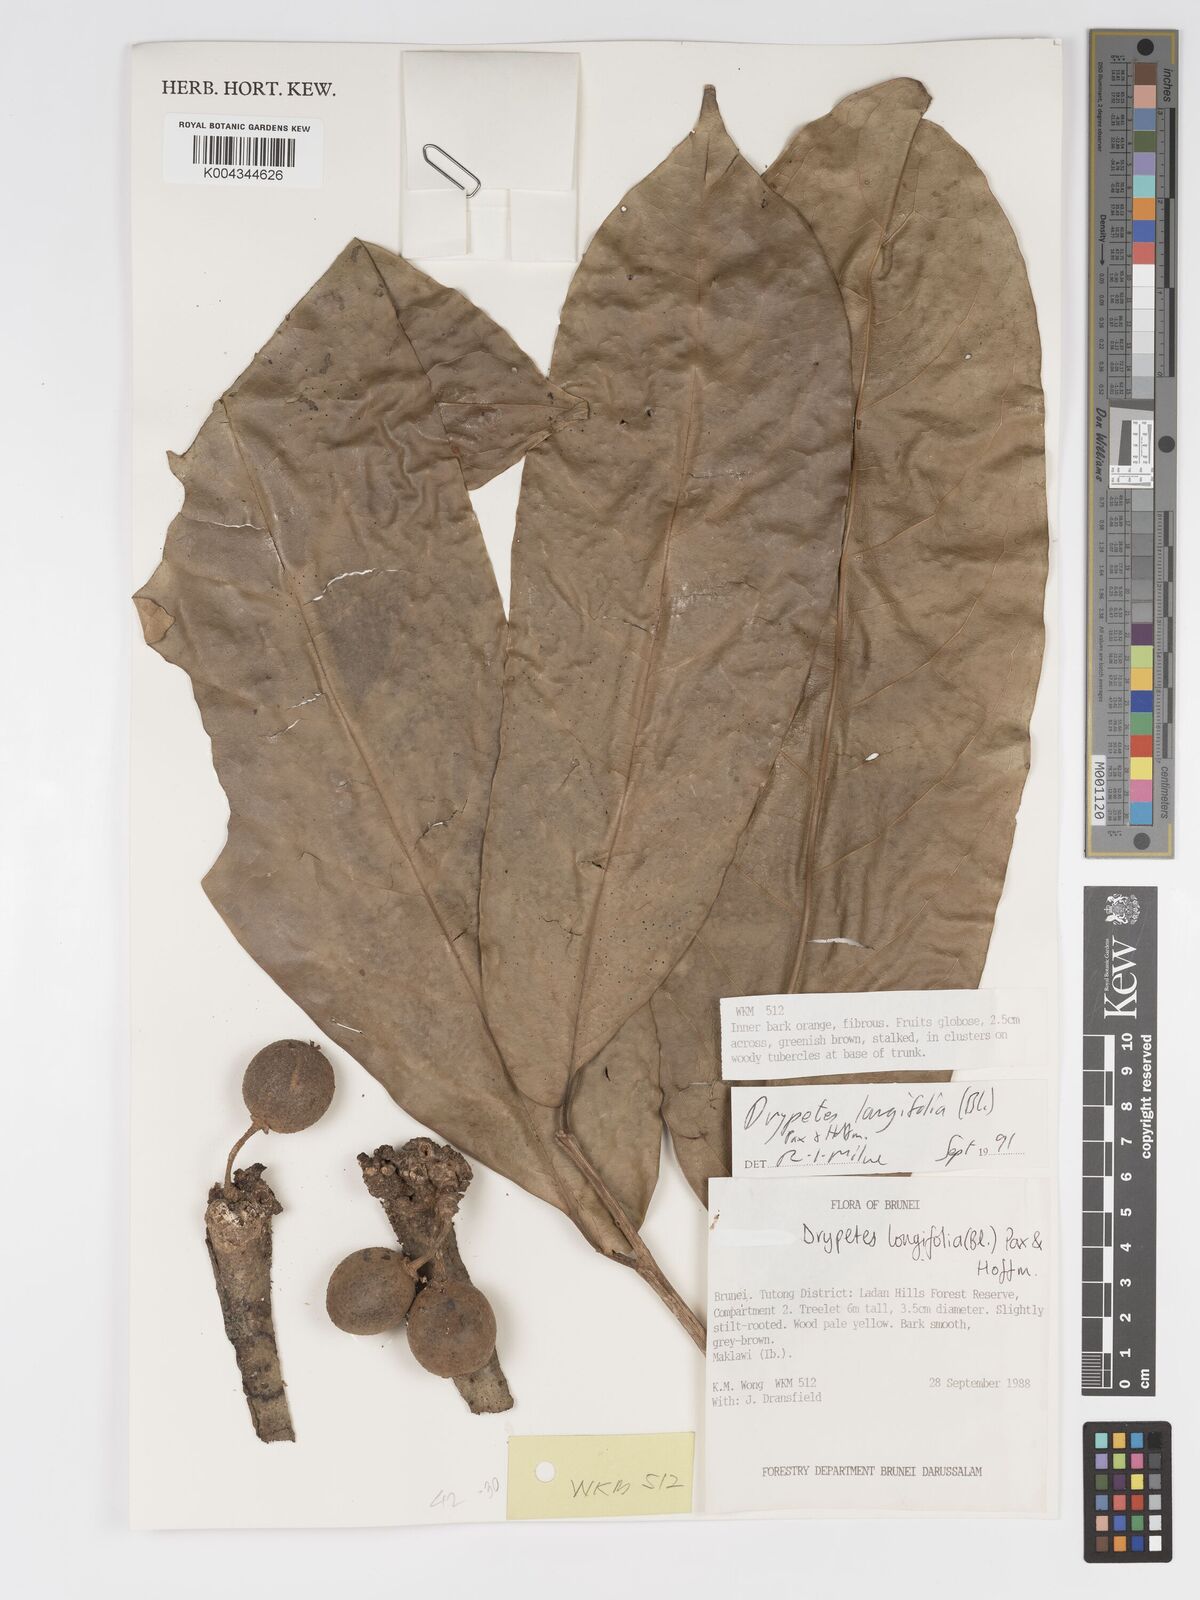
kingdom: Plantae
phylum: Tracheophyta
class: Magnoliopsida
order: Malpighiales
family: Putranjivaceae
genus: Drypetes
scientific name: Drypetes longifolia
